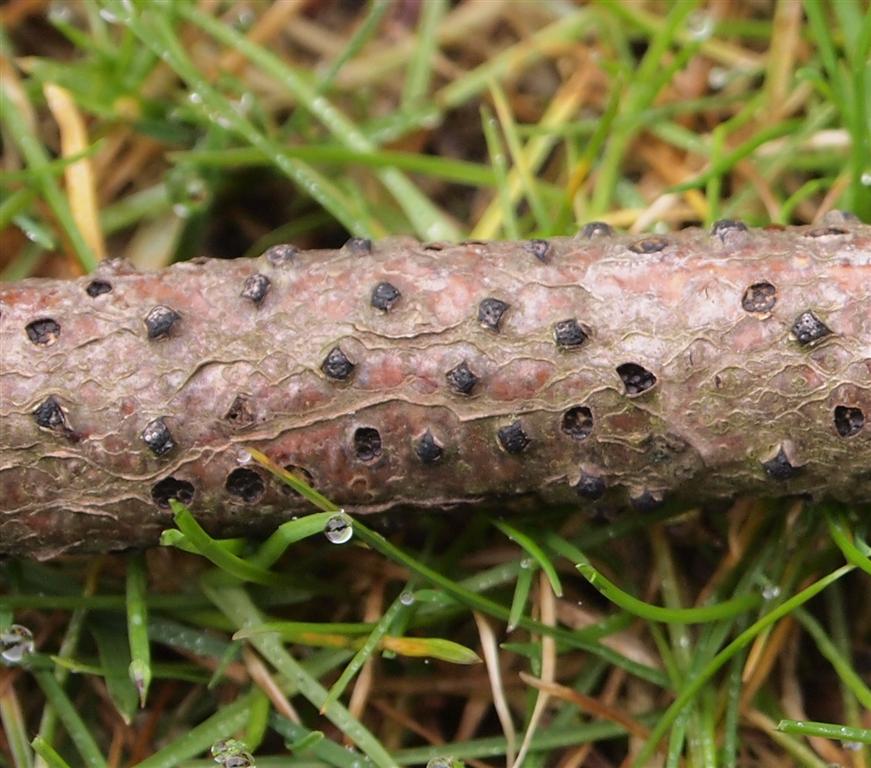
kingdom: Fungi
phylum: Ascomycota
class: Sordariomycetes
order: Xylariales
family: Diatrypaceae
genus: Diatrypella
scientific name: Diatrypella quercina
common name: ege-kulskorpe
